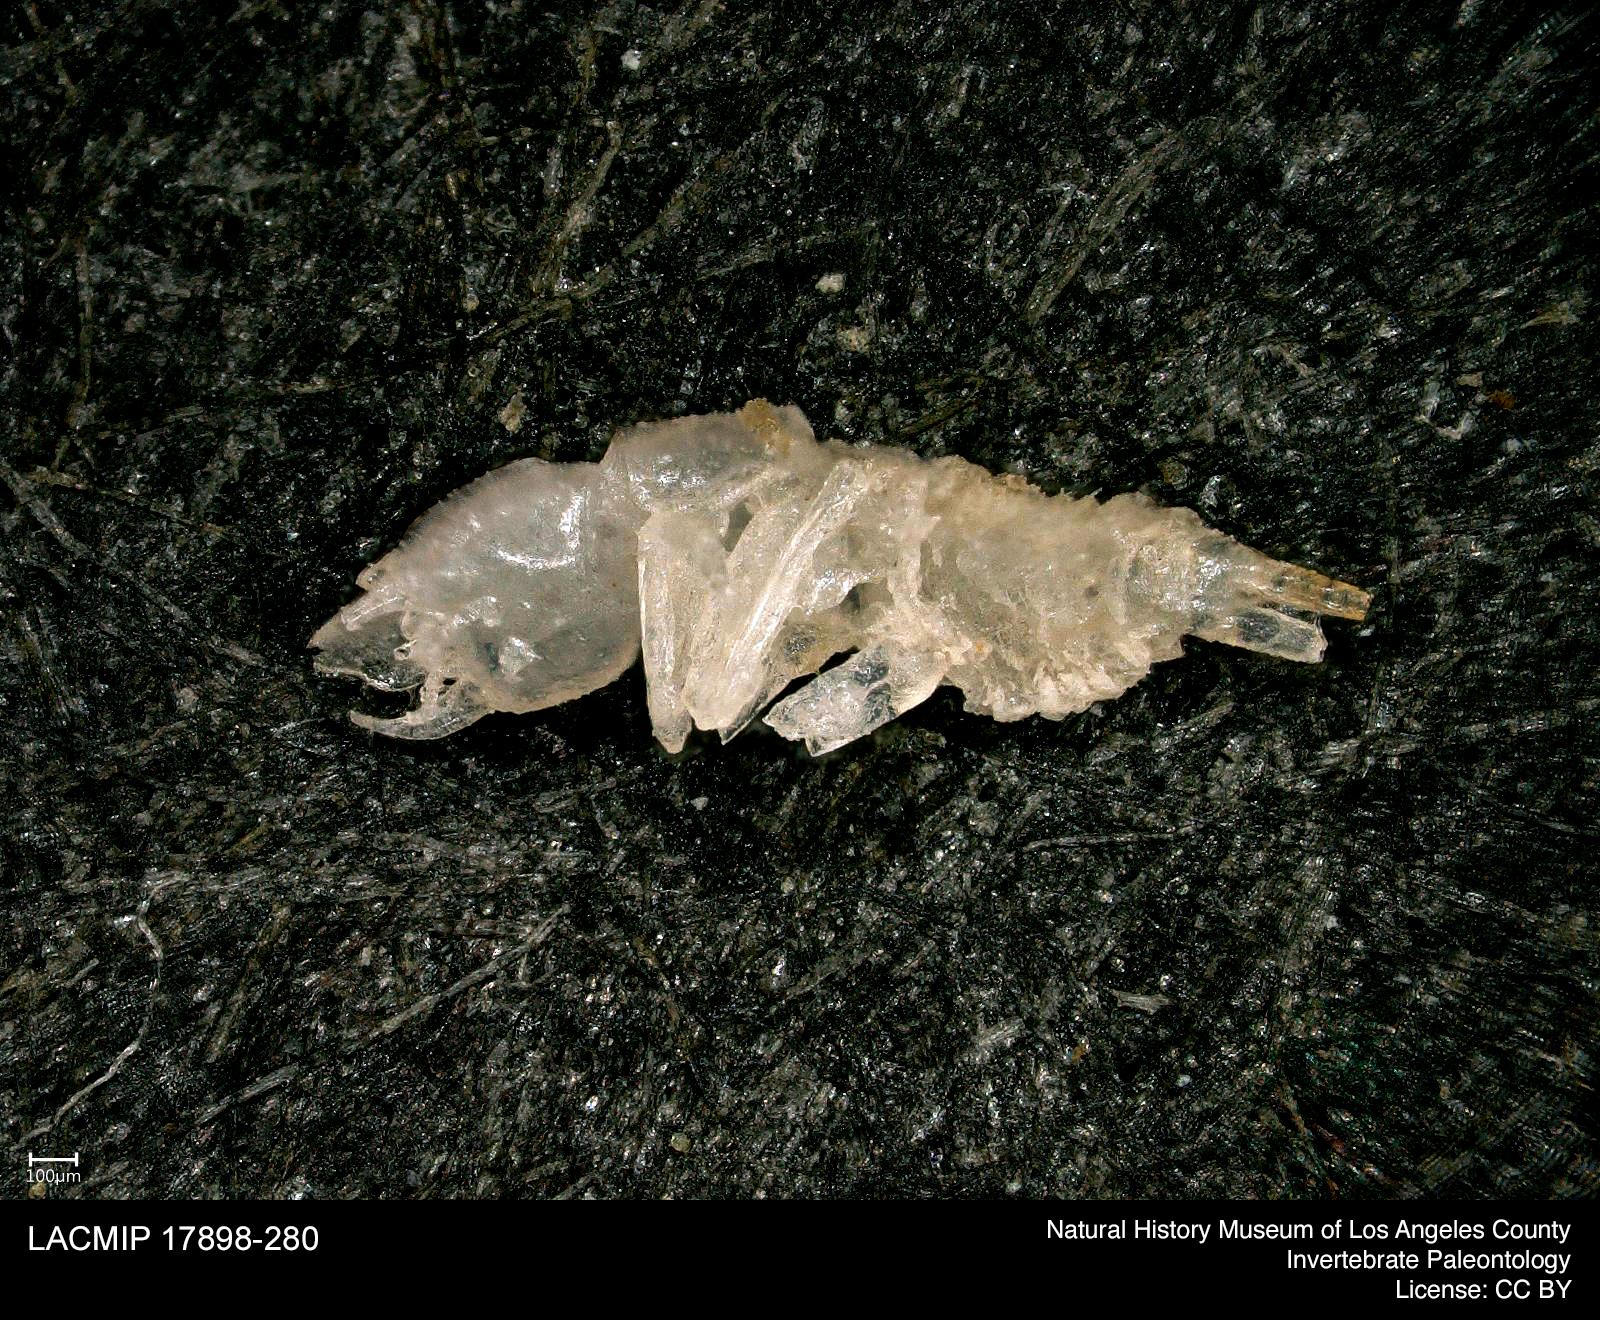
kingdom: Animalia
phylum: Arthropoda
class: Insecta
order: Coleoptera
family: Dytiscidae
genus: Schistomerus
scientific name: Schistomerus californense
